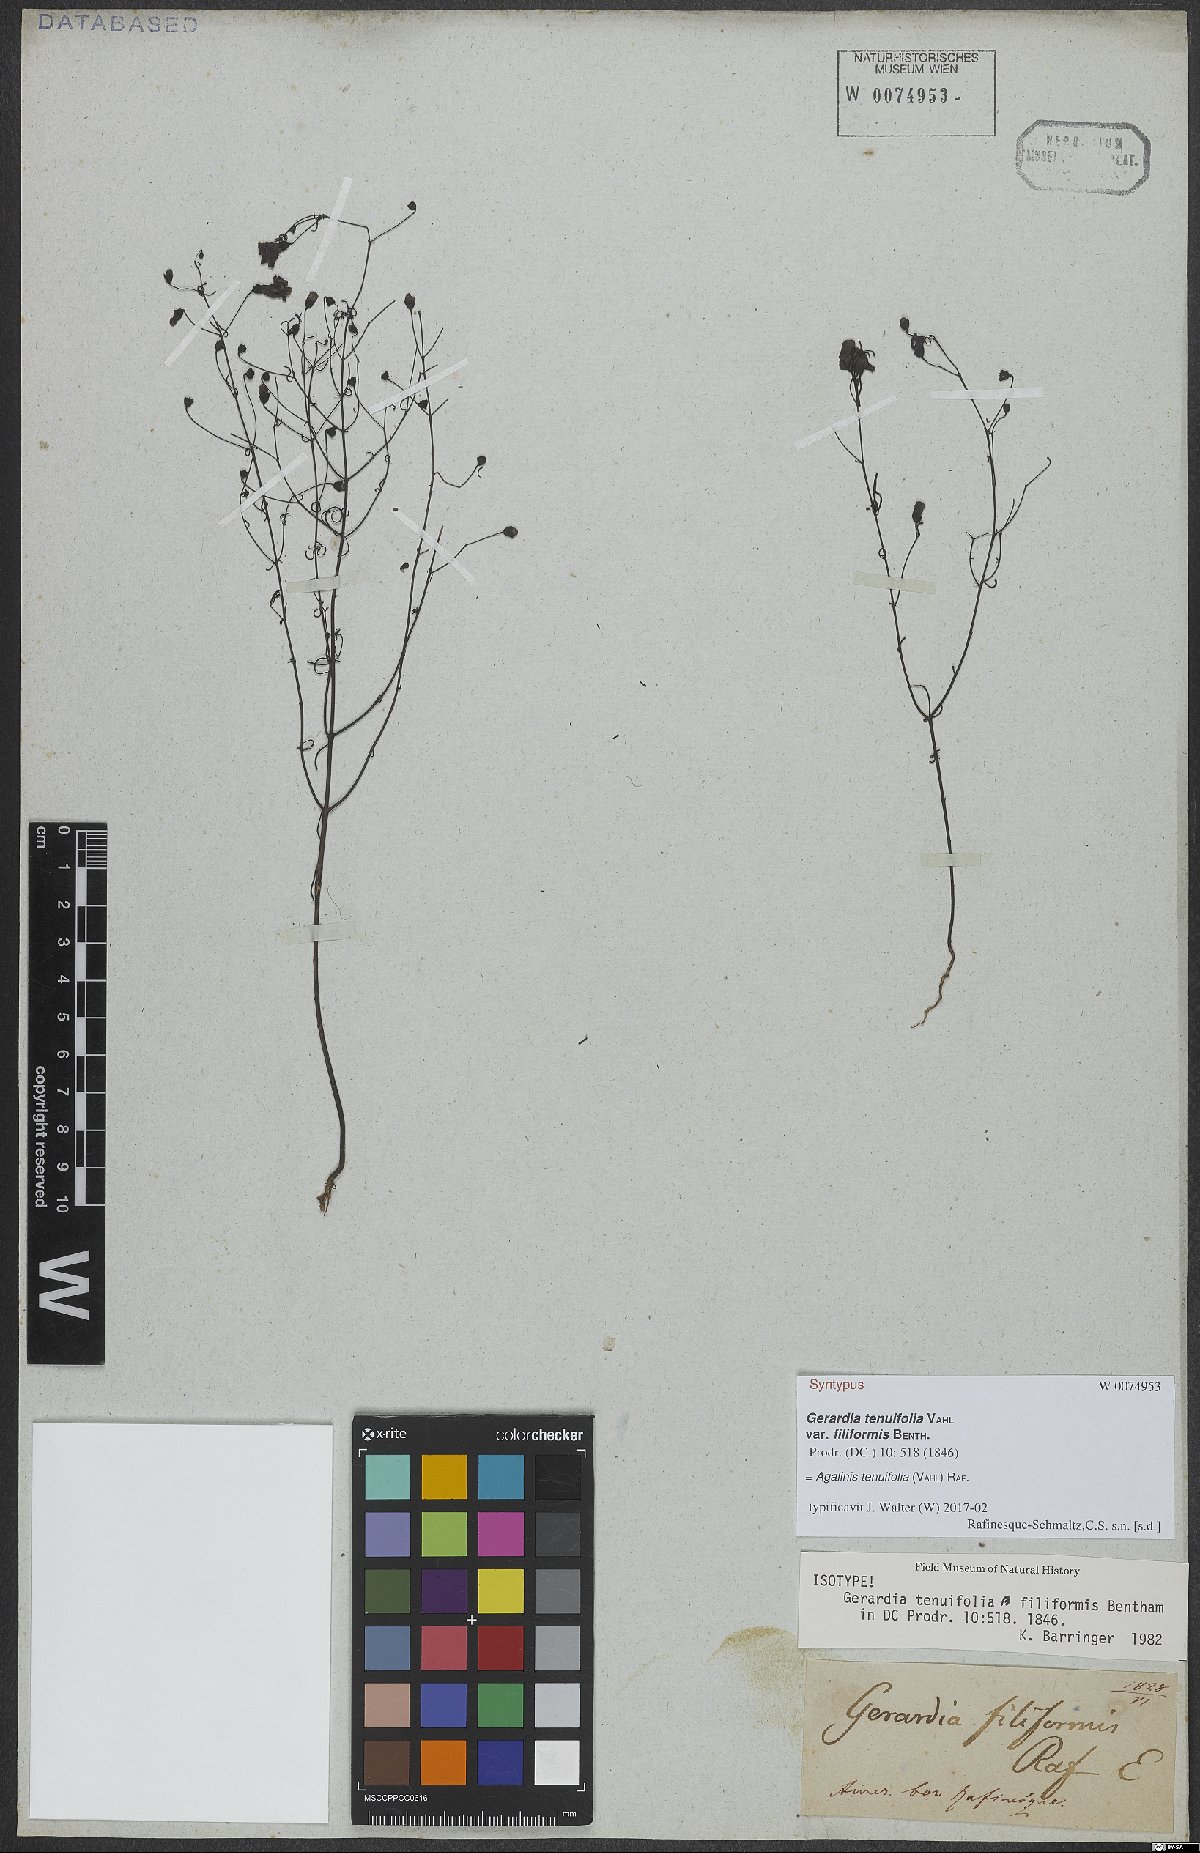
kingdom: Plantae
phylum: Tracheophyta
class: Magnoliopsida
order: Lamiales
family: Orobanchaceae
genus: Agalinis
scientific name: Agalinis tenuifolia
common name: Slender agalinis
